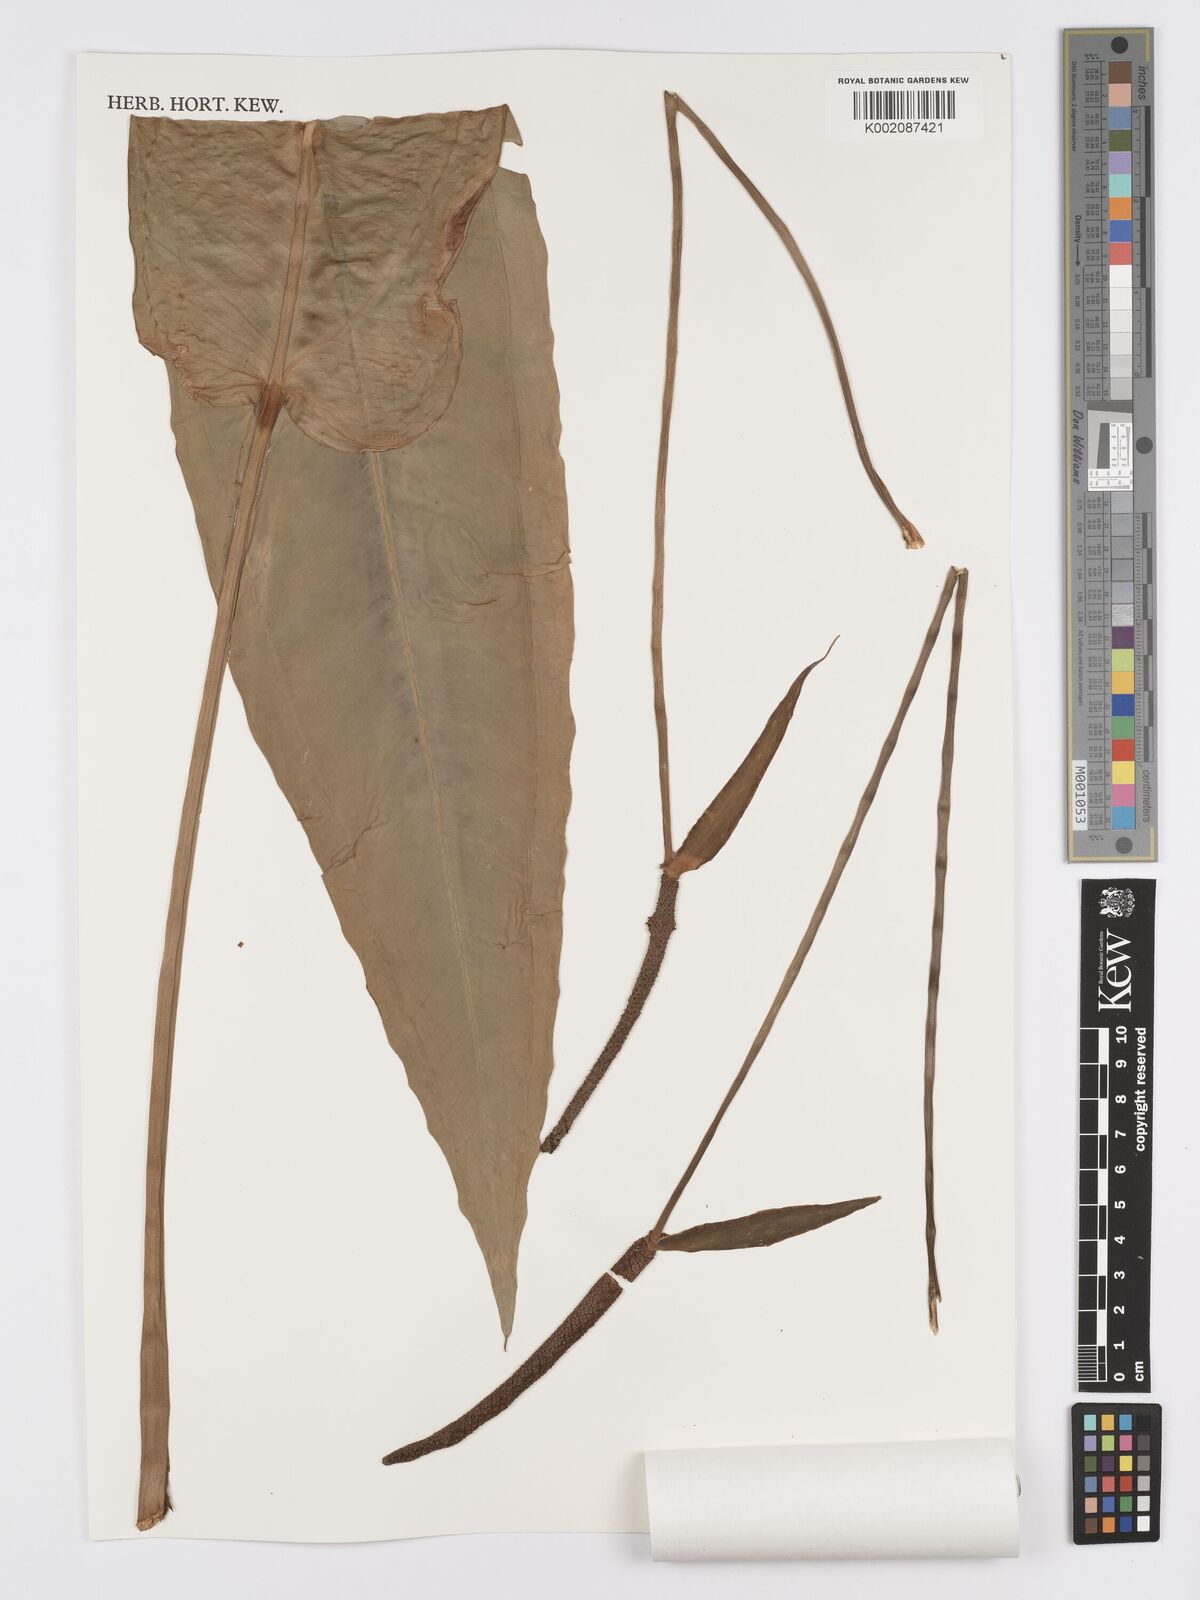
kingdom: Plantae
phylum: Tracheophyta
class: Liliopsida
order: Alismatales
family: Araceae
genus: Anthurium
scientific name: Anthurium
